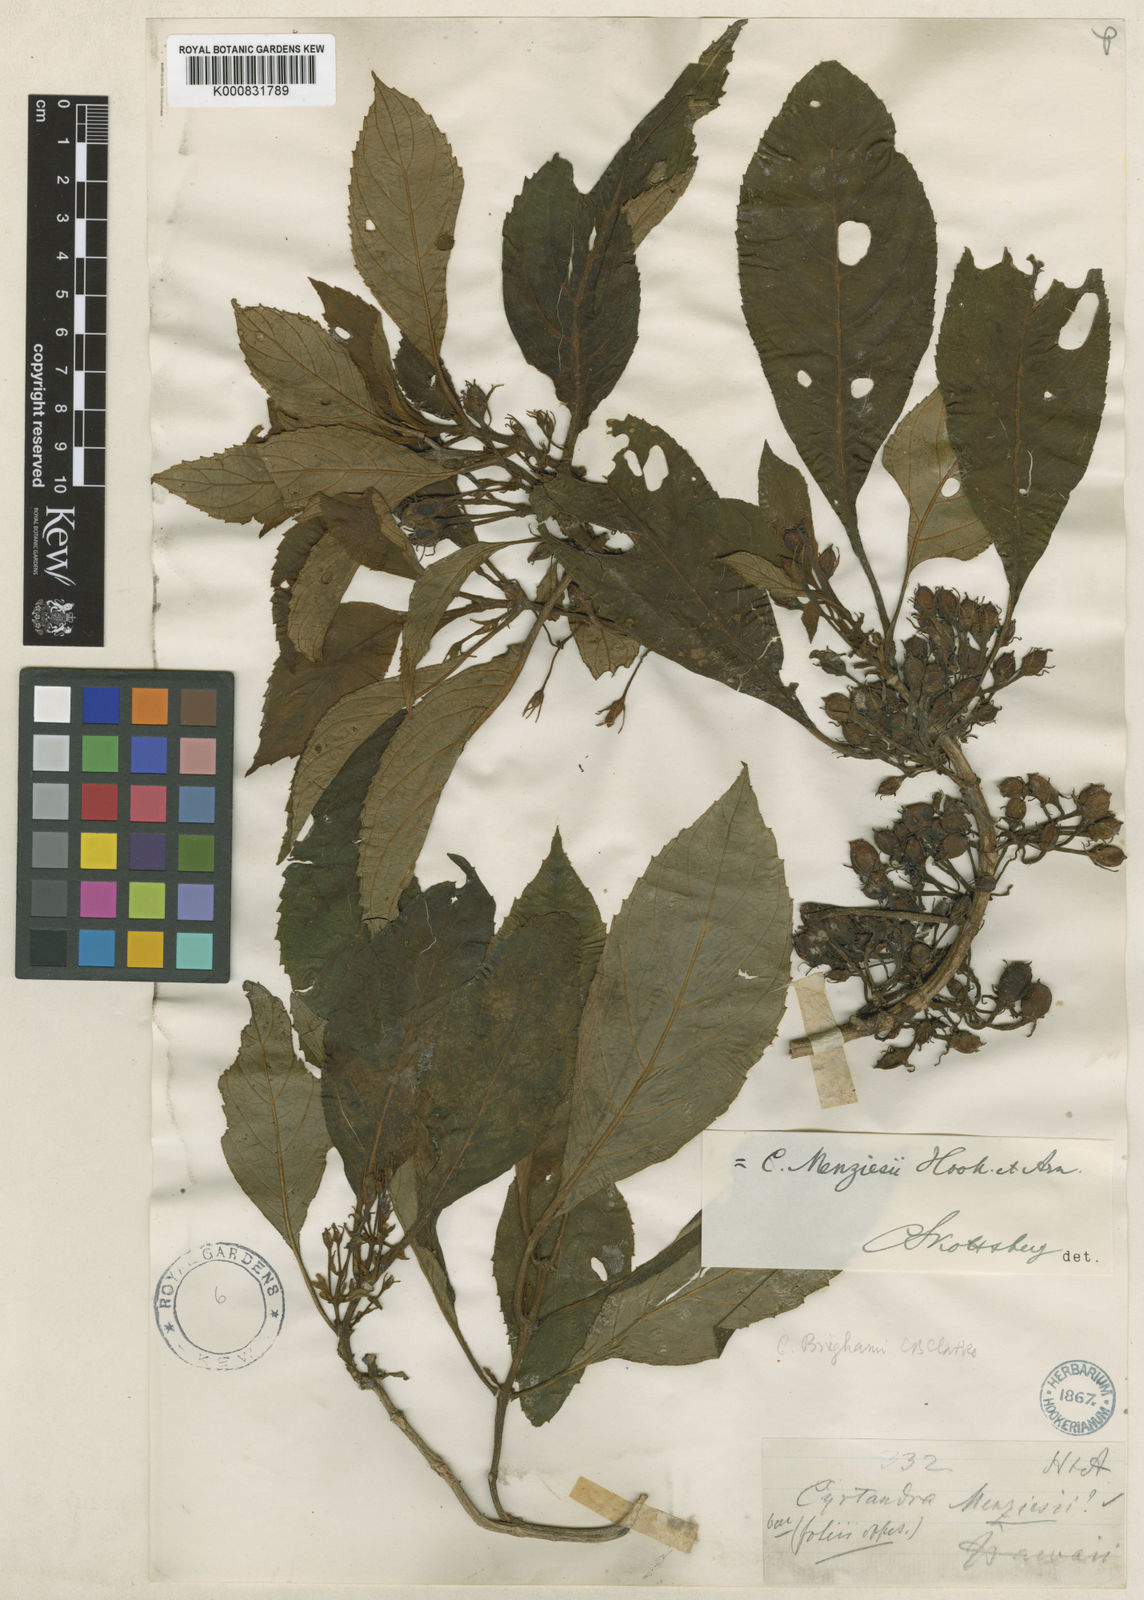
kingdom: Plantae
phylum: Tracheophyta
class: Magnoliopsida
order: Lamiales
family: Gesneriaceae
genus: Cyrtandra
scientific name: Cyrtandra menziesii
